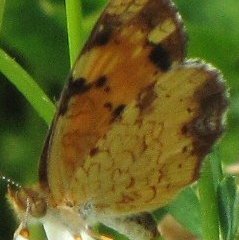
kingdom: Animalia
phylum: Arthropoda
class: Insecta
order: Lepidoptera
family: Nymphalidae
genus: Phyciodes
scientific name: Phyciodes tharos
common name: Northern Crescent
